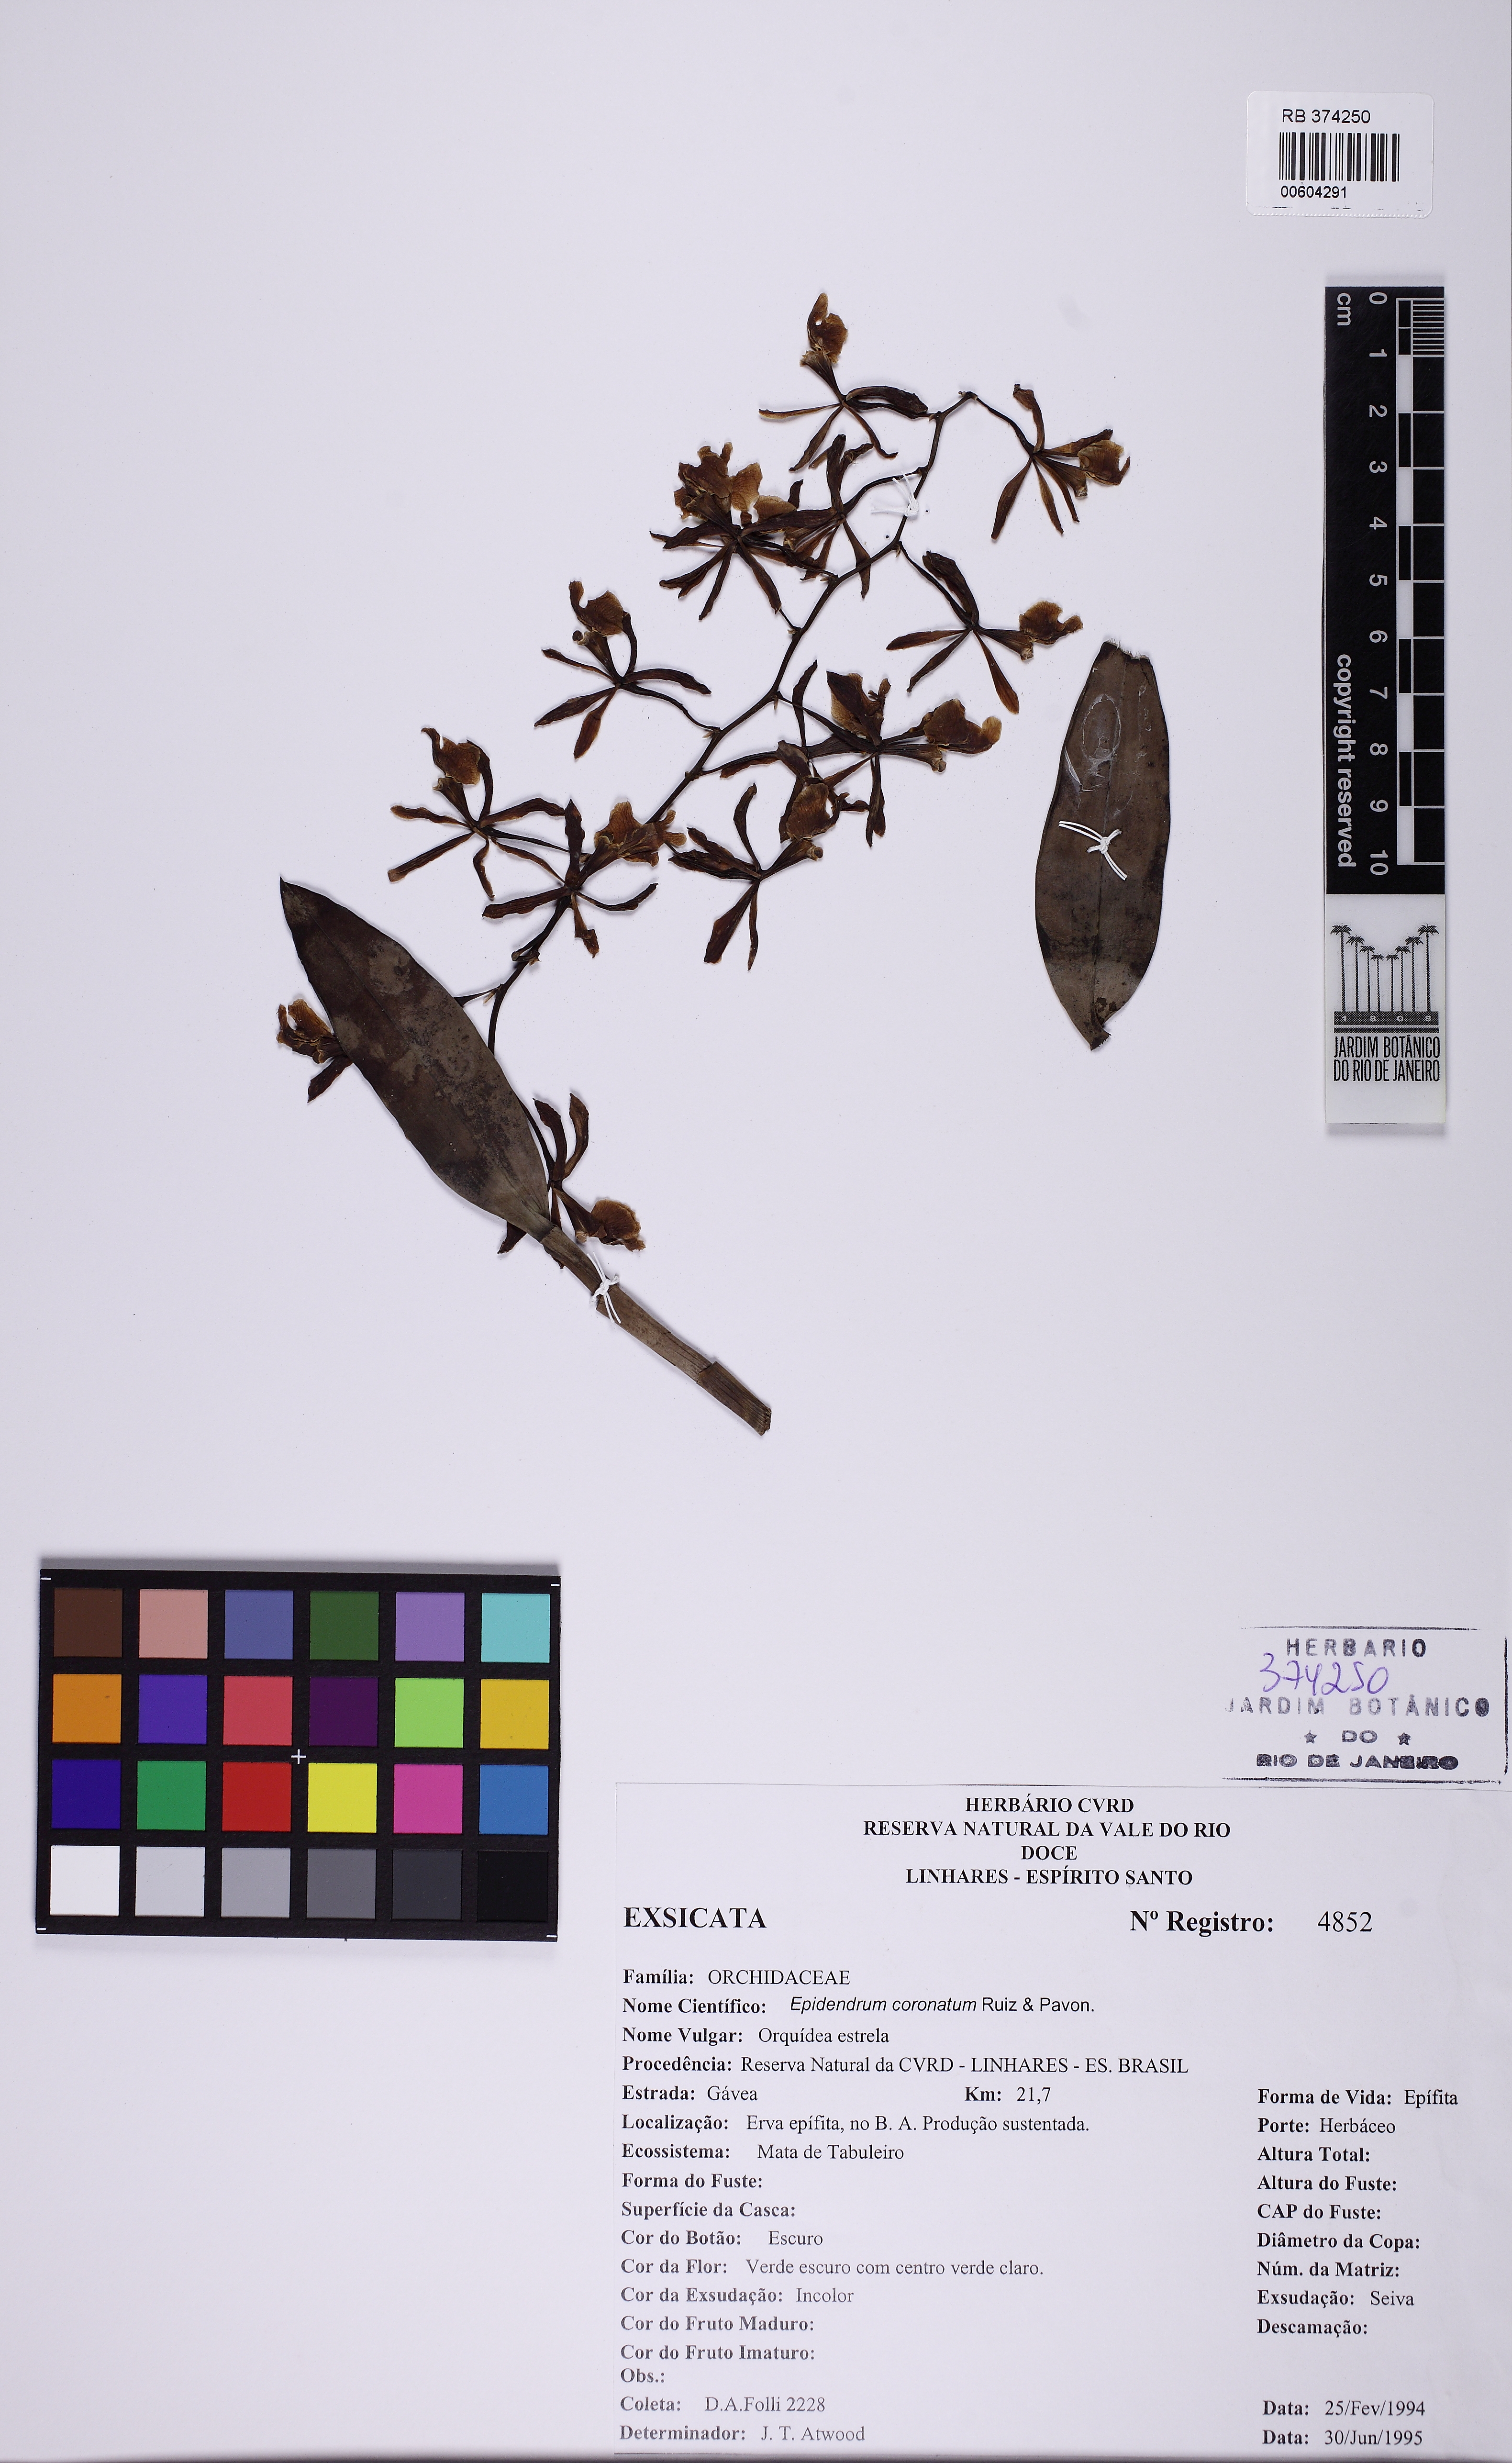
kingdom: Plantae
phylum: Tracheophyta
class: Liliopsida
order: Asparagales
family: Orchidaceae
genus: Epidendrum
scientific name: Epidendrum coronatum
